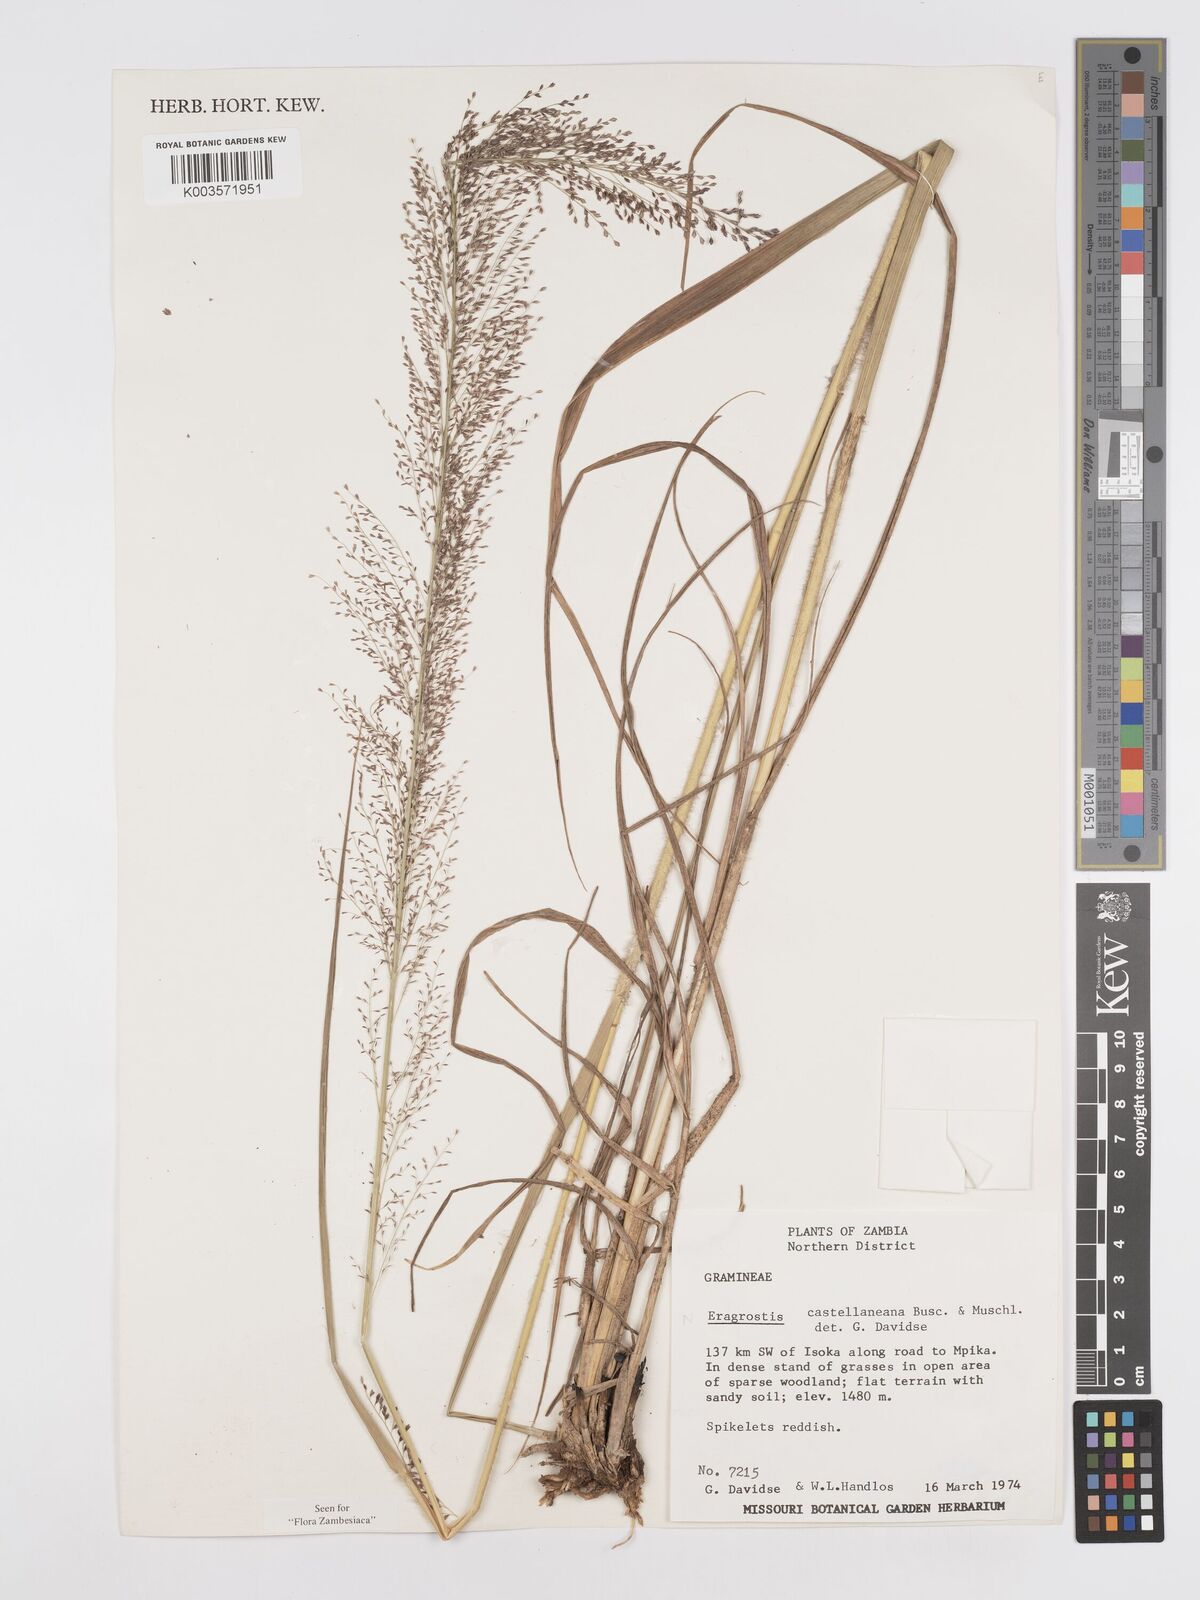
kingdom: Plantae
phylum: Tracheophyta
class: Liliopsida
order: Poales
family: Poaceae
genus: Eragrostis
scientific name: Eragrostis castellaneana
